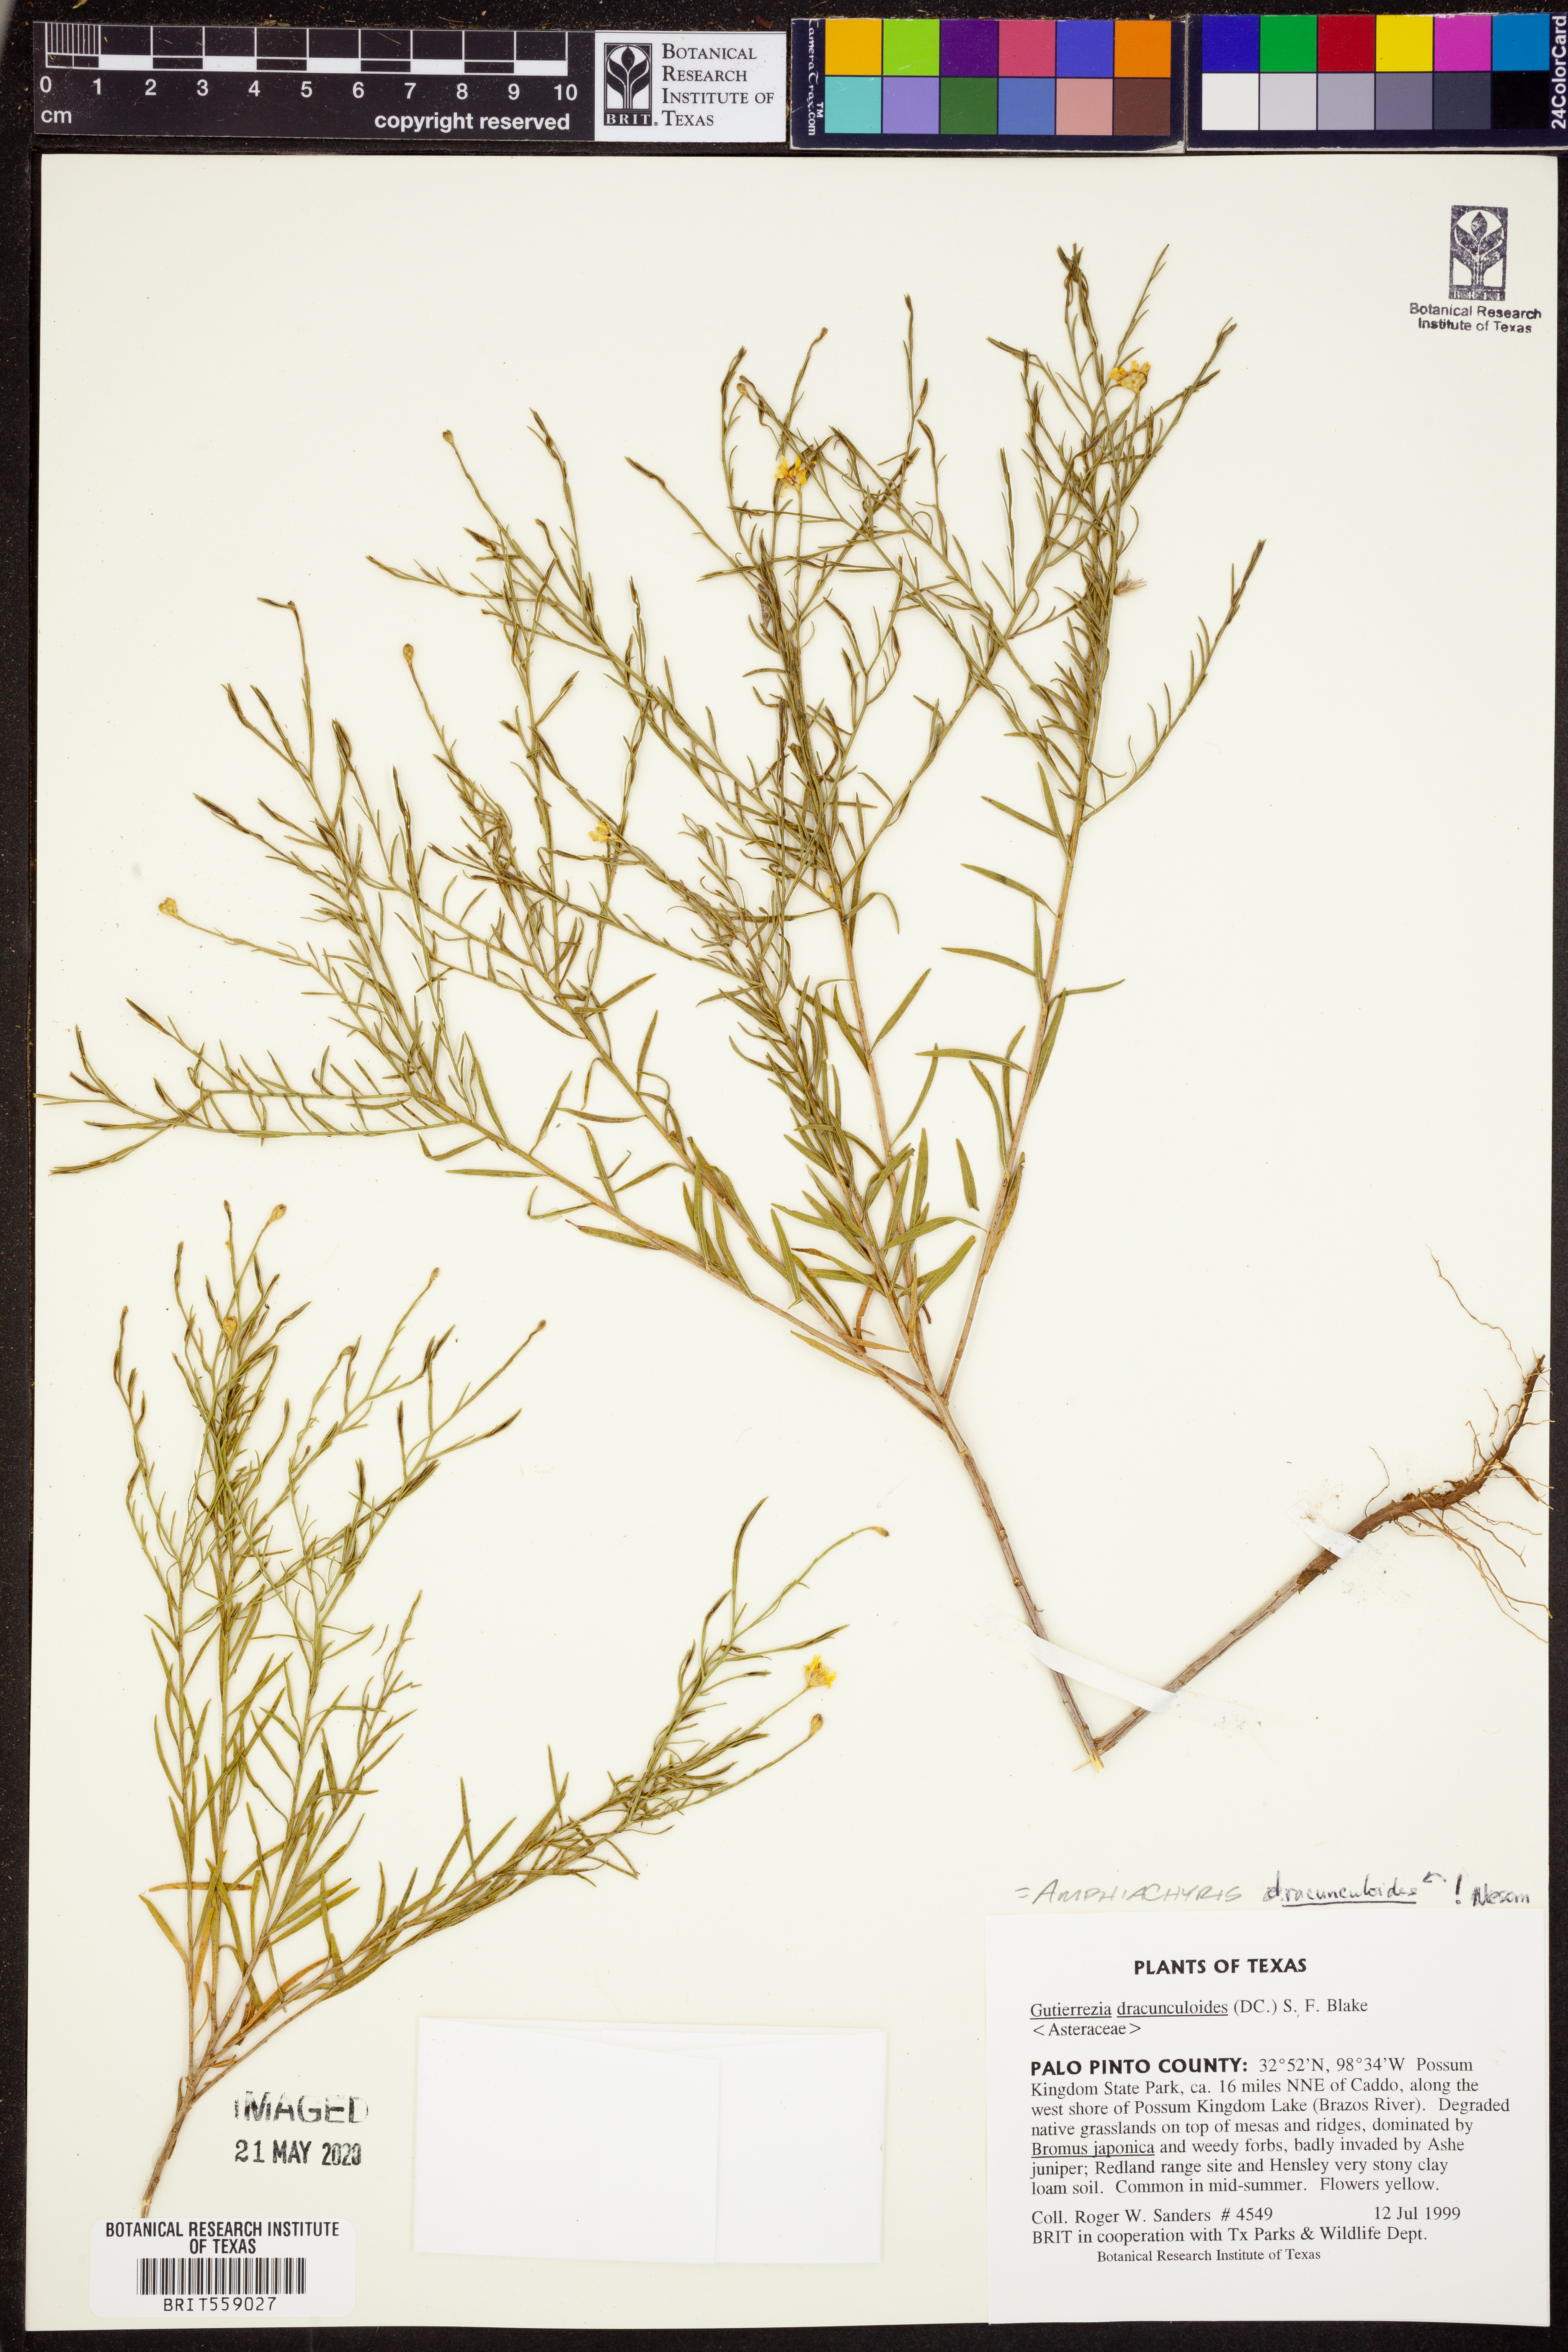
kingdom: Plantae
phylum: Tracheophyta
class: Magnoliopsida
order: Asterales
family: Asteraceae
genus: Amphiachyris
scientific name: Amphiachyris dracunculoides
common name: Broomweed
